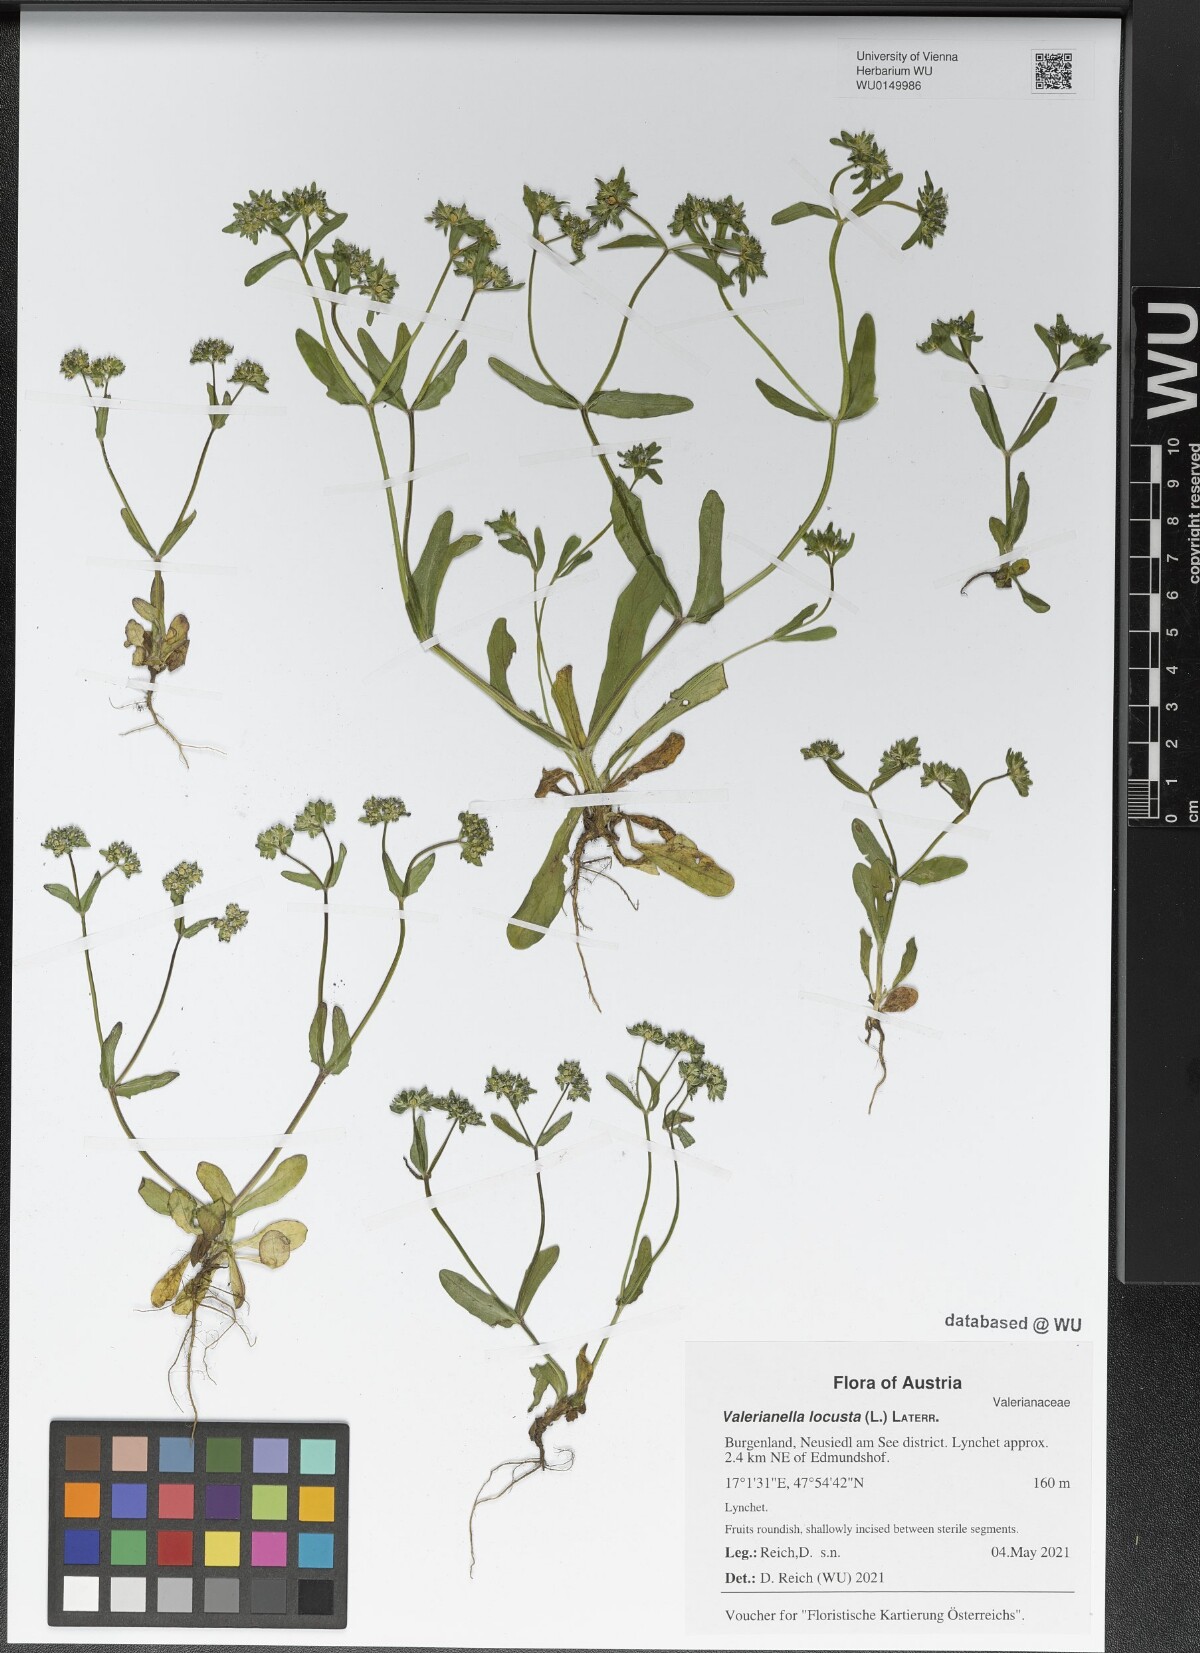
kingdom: Plantae
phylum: Tracheophyta
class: Magnoliopsida
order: Dipsacales
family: Caprifoliaceae
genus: Valerianella
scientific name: Valerianella locusta
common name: Common cornsalad
